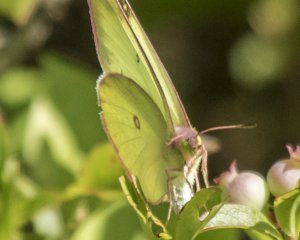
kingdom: Animalia
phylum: Arthropoda
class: Insecta
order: Lepidoptera
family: Pieridae
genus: Colias
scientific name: Colias interior
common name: Pink-edged Sulphur
